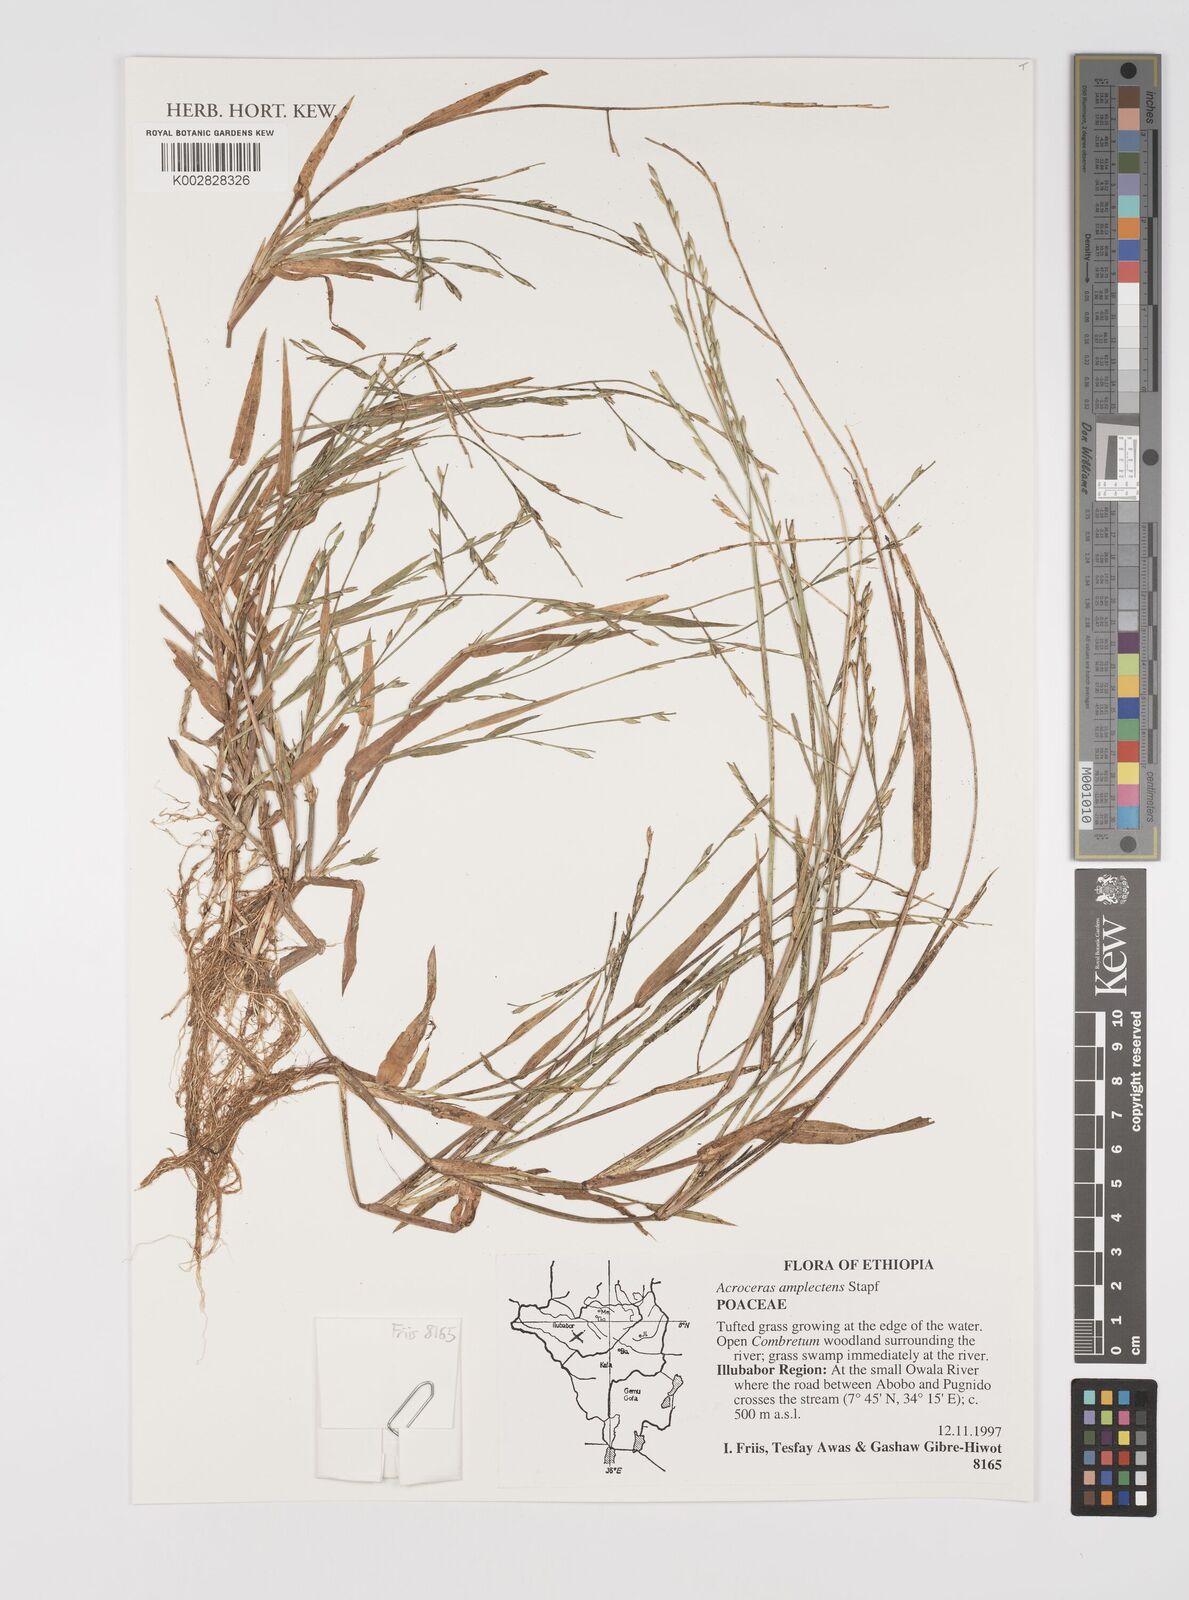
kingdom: Plantae
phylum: Tracheophyta
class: Liliopsida
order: Poales
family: Poaceae
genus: Acroceras
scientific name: Acroceras amplectens
